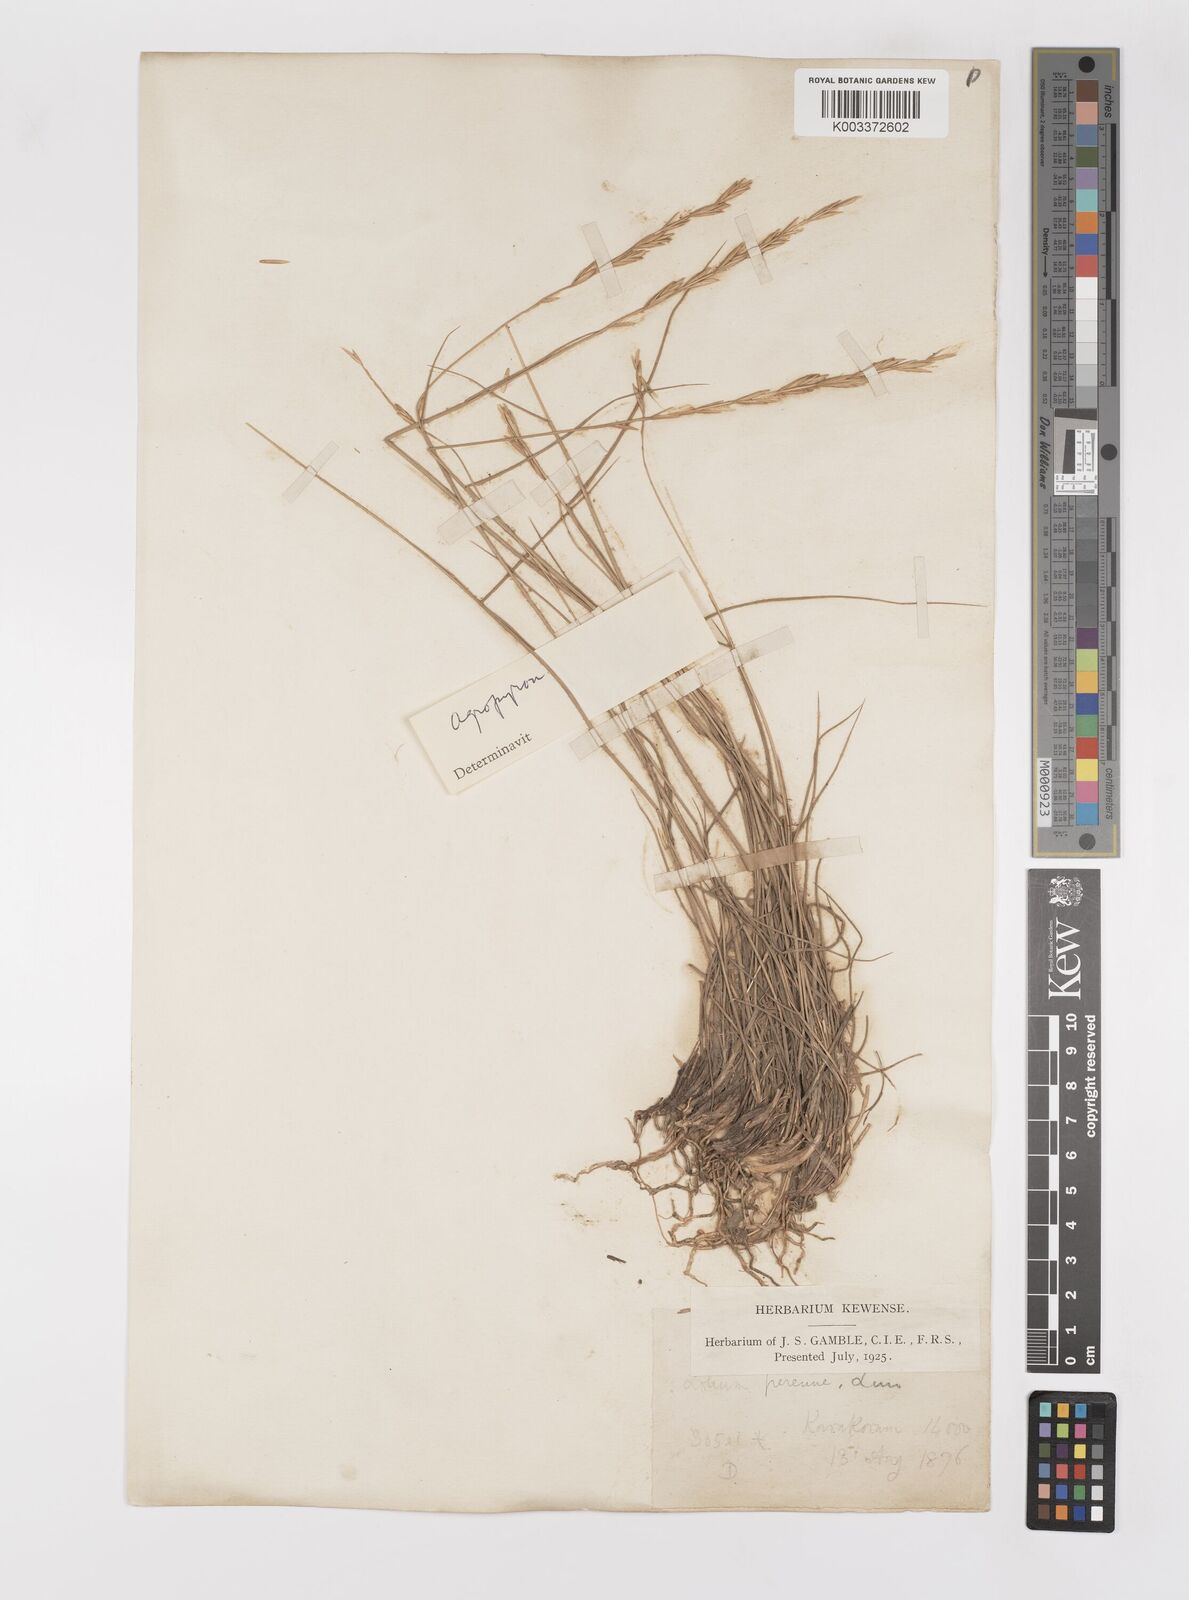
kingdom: Plantae
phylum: Tracheophyta
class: Liliopsida
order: Poales
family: Poaceae
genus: Elymus
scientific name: Elymus
